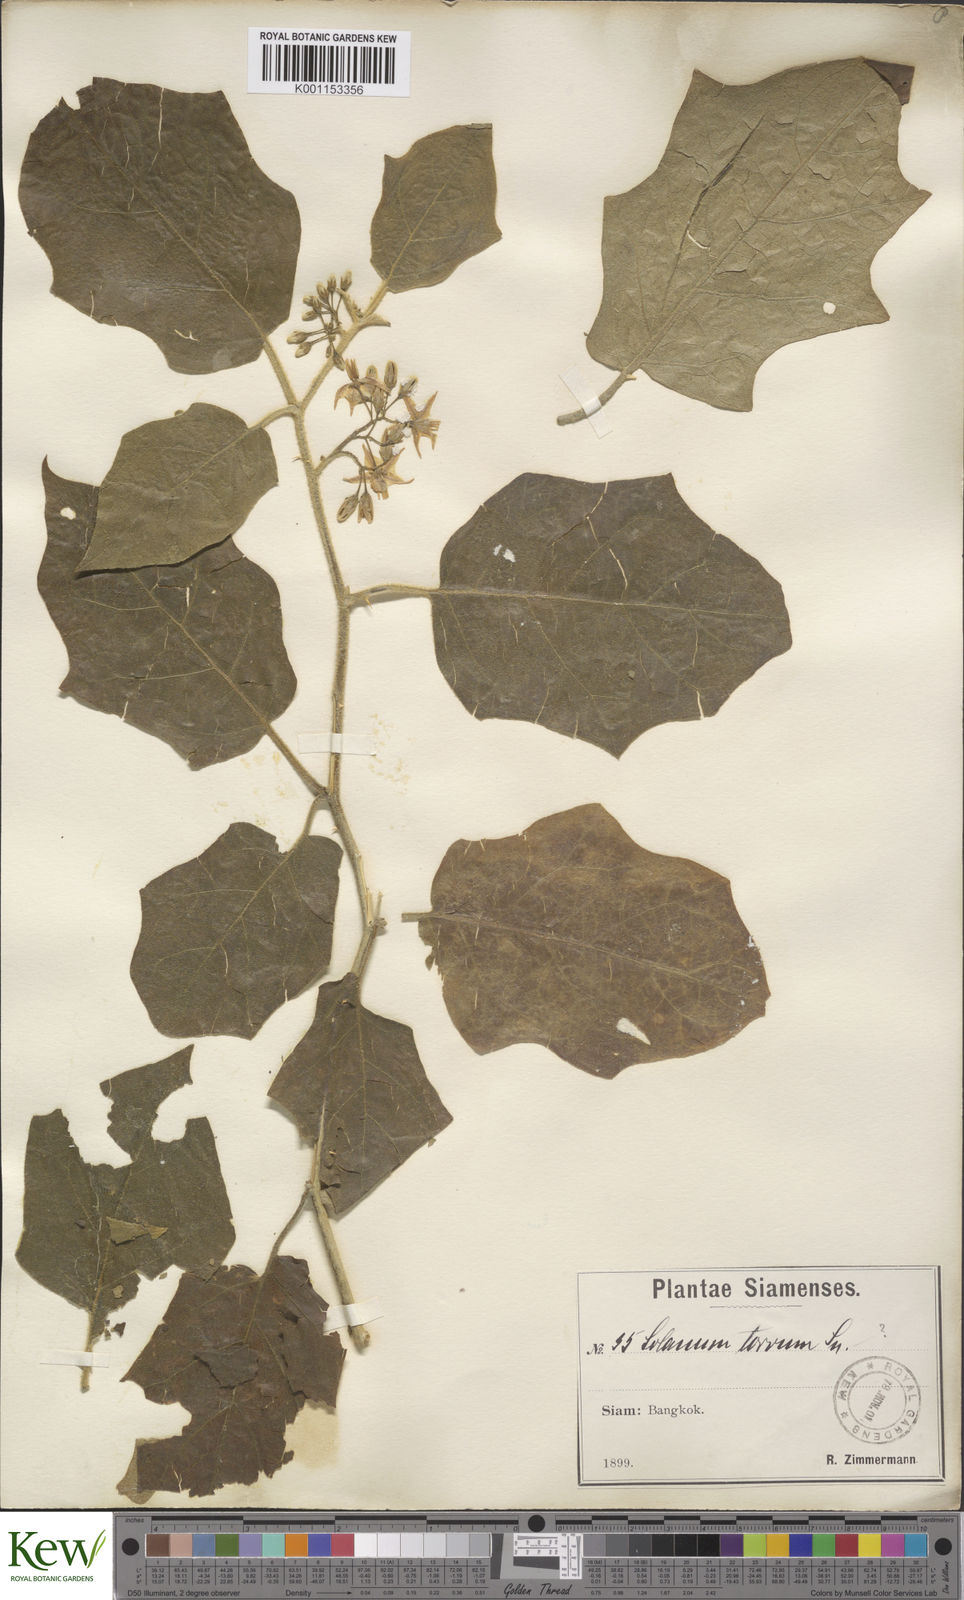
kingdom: Plantae
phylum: Tracheophyta
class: Magnoliopsida
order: Solanales
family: Solanaceae
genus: Solanum
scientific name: Solanum torvum
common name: Turkey berry
